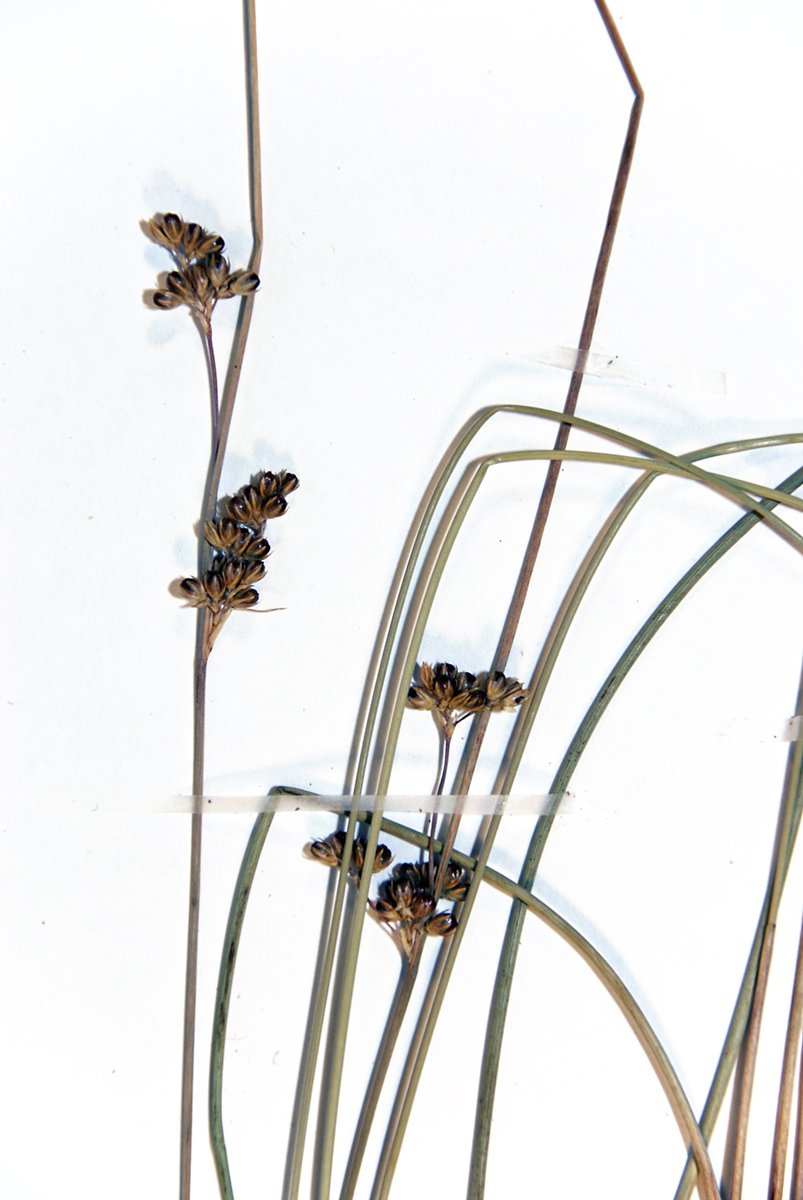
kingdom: Plantae
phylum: Tracheophyta
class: Liliopsida
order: Poales
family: Juncaceae
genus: Juncus
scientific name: Juncus distegus
